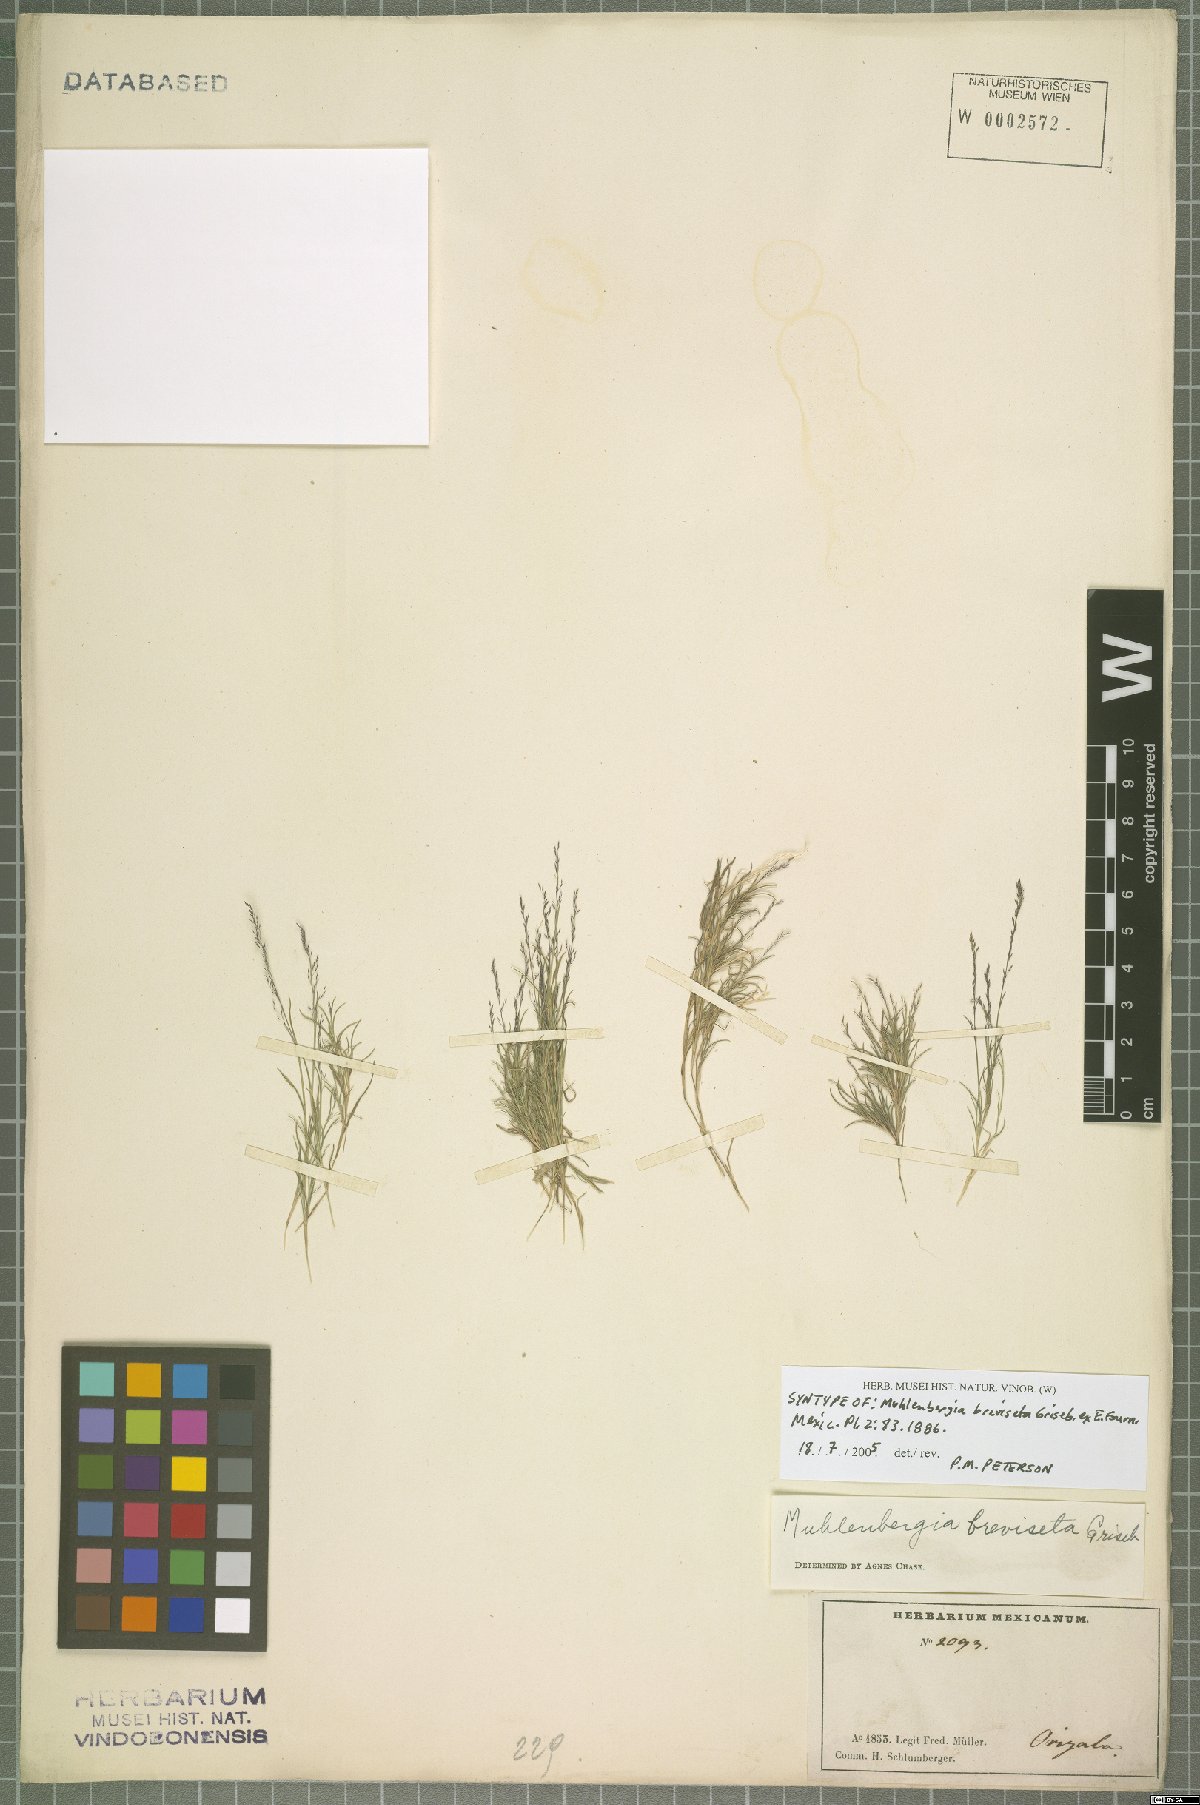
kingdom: Plantae
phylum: Tracheophyta
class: Liliopsida
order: Poales
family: Poaceae
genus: Muhlenbergia
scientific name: Muhlenbergia breviseta
